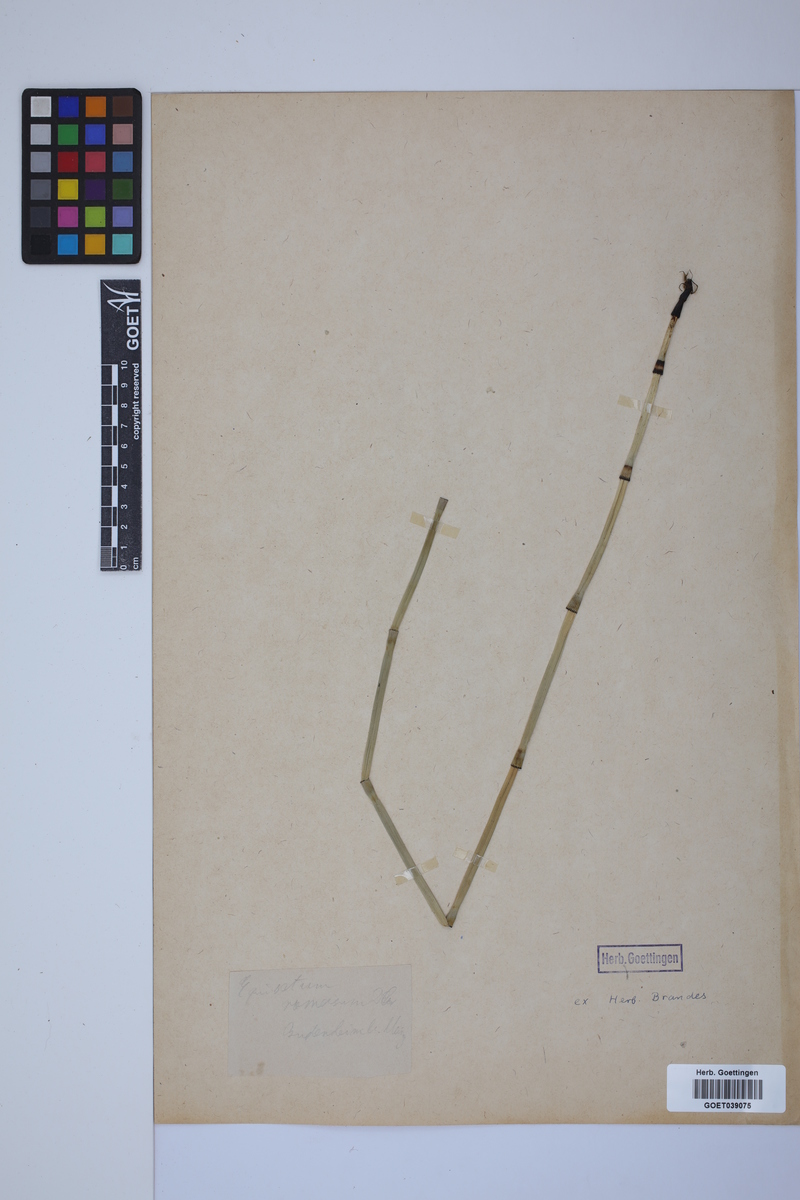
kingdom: Plantae
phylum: Tracheophyta
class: Polypodiopsida
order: Equisetales
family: Equisetaceae
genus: Equisetum
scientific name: Equisetum giganteum
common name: Giant horsetail
